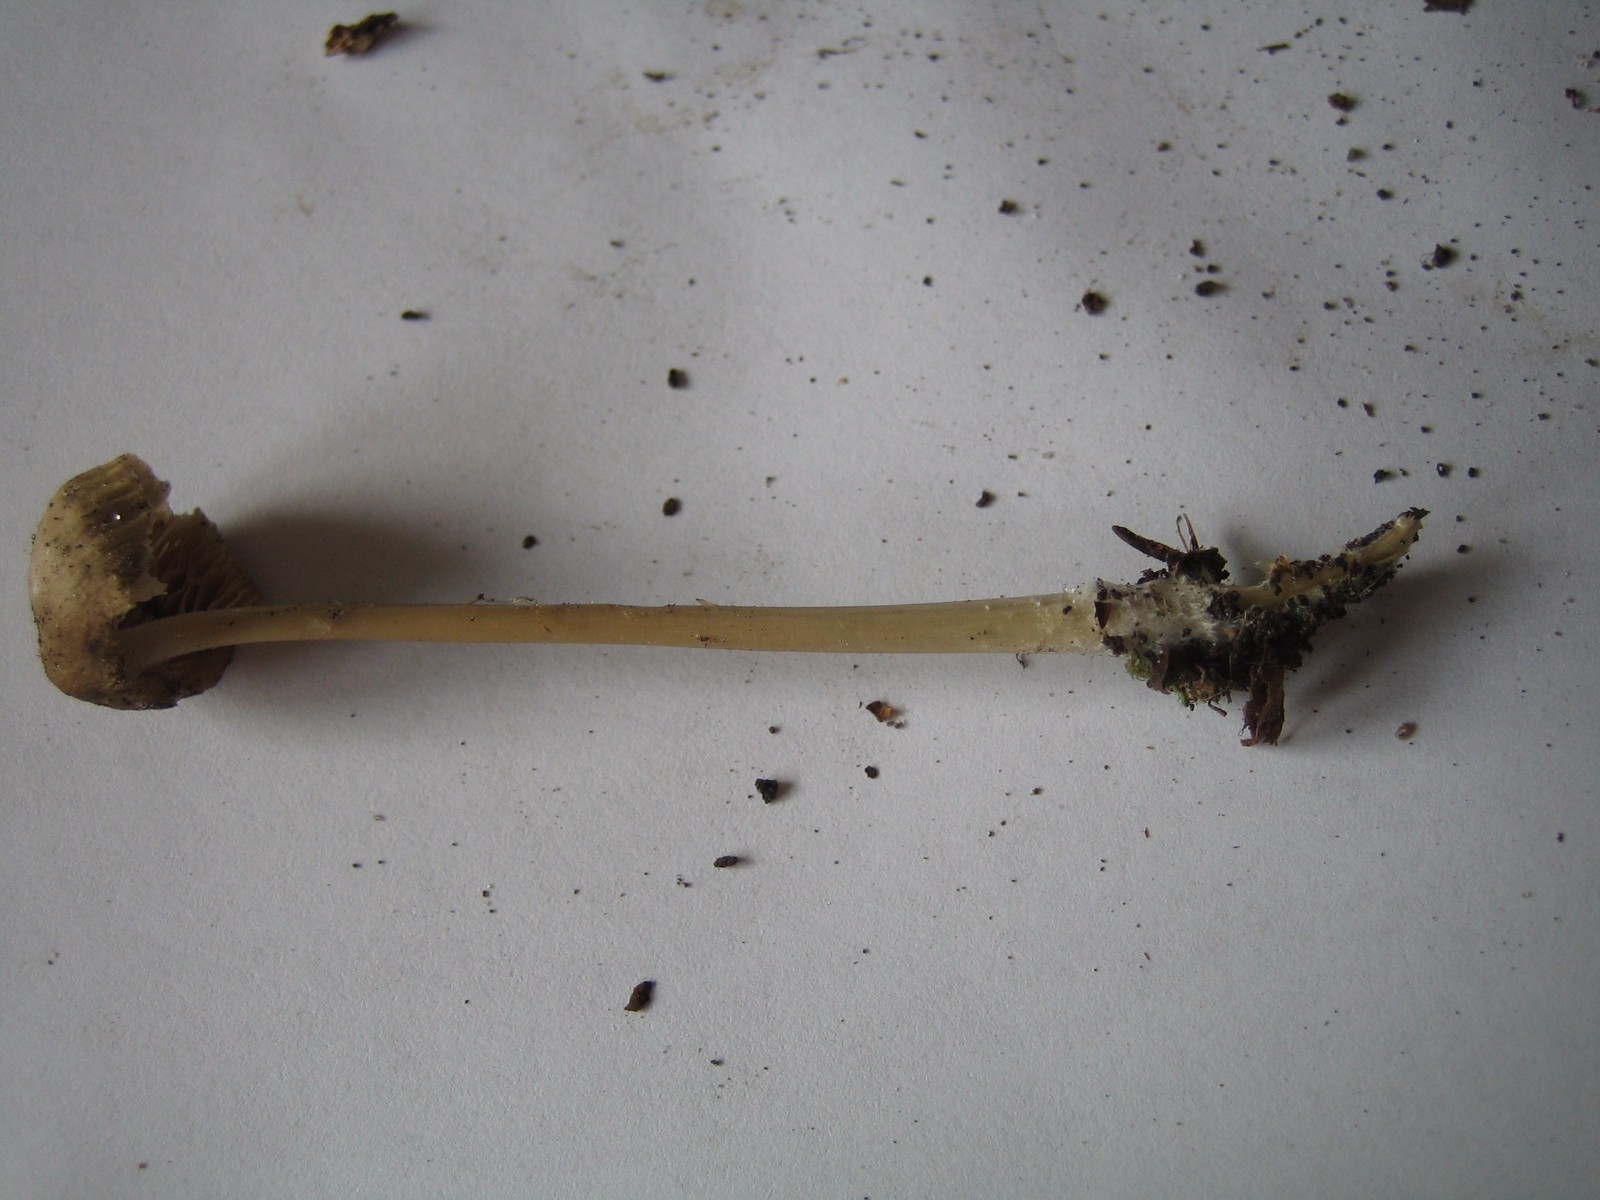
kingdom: Fungi
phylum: Basidiomycota
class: Agaricomycetes
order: Agaricales
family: Mycenaceae
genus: Mycena
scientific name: Mycena galericulata
